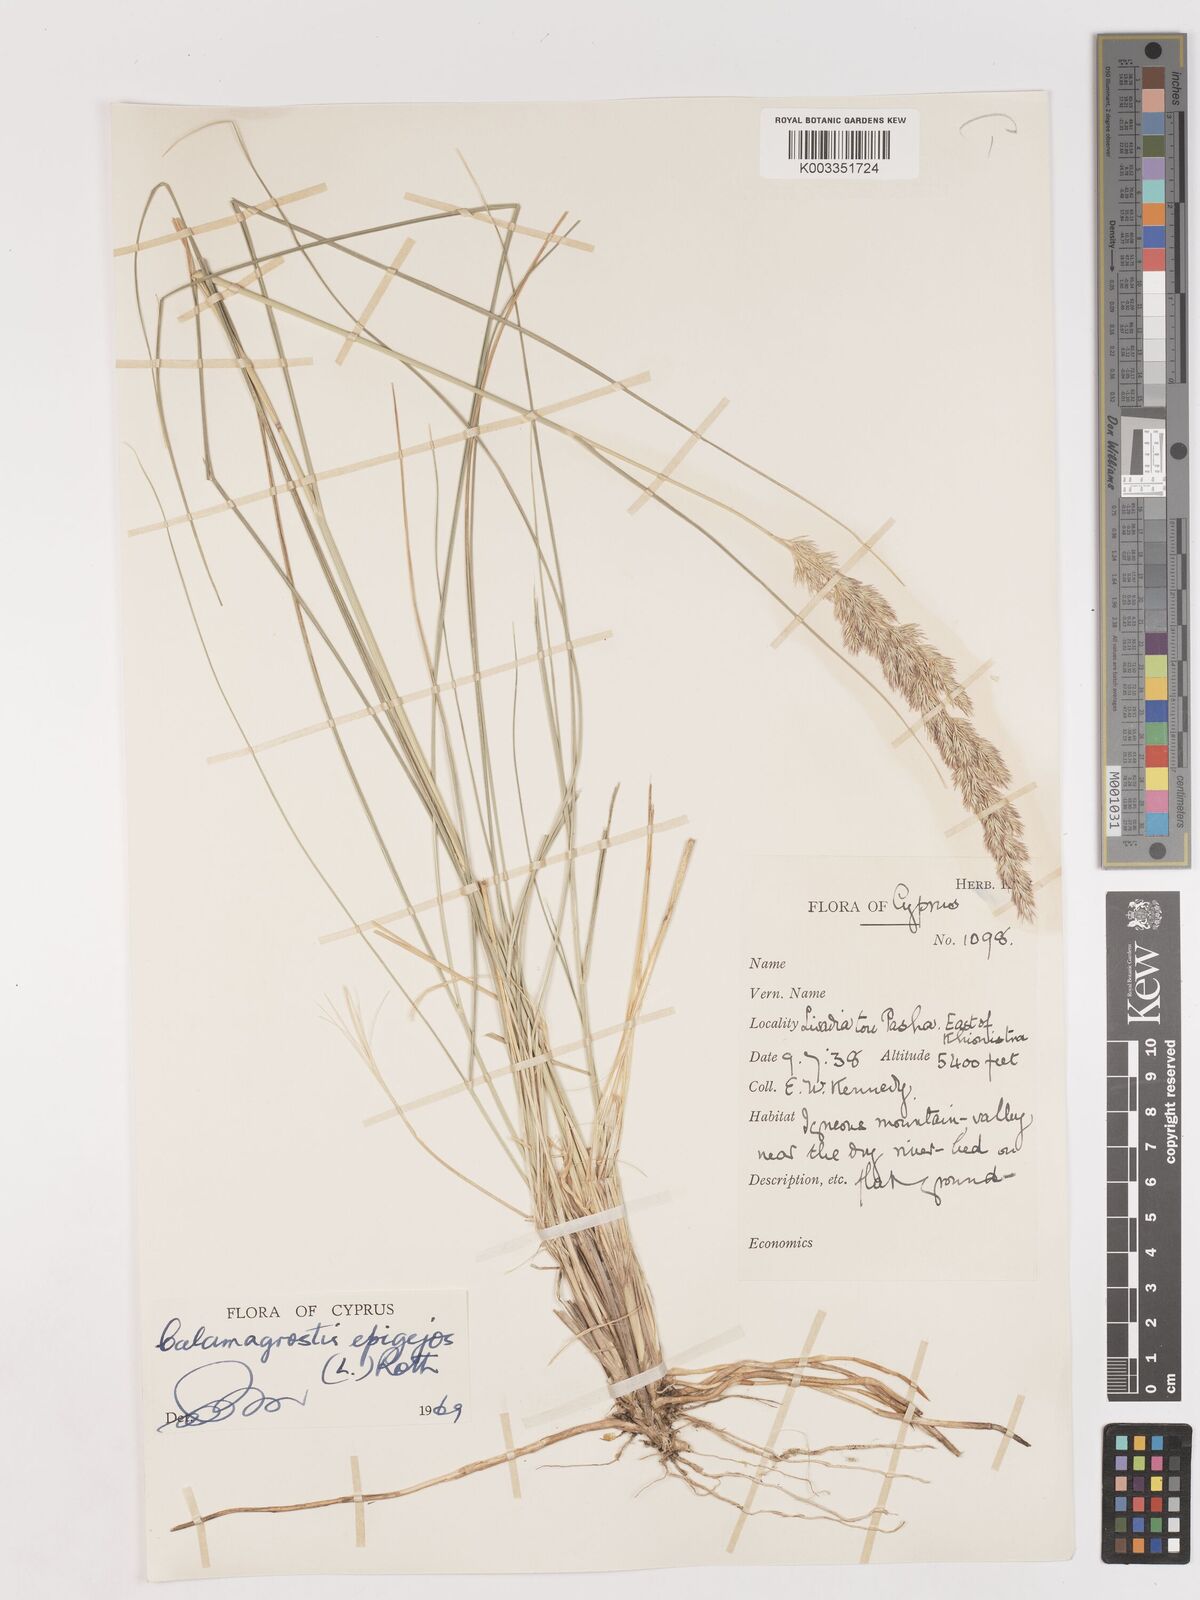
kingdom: Plantae
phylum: Tracheophyta
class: Liliopsida
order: Poales
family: Poaceae
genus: Calamagrostis
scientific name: Calamagrostis epigejos
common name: Wood small-reed
